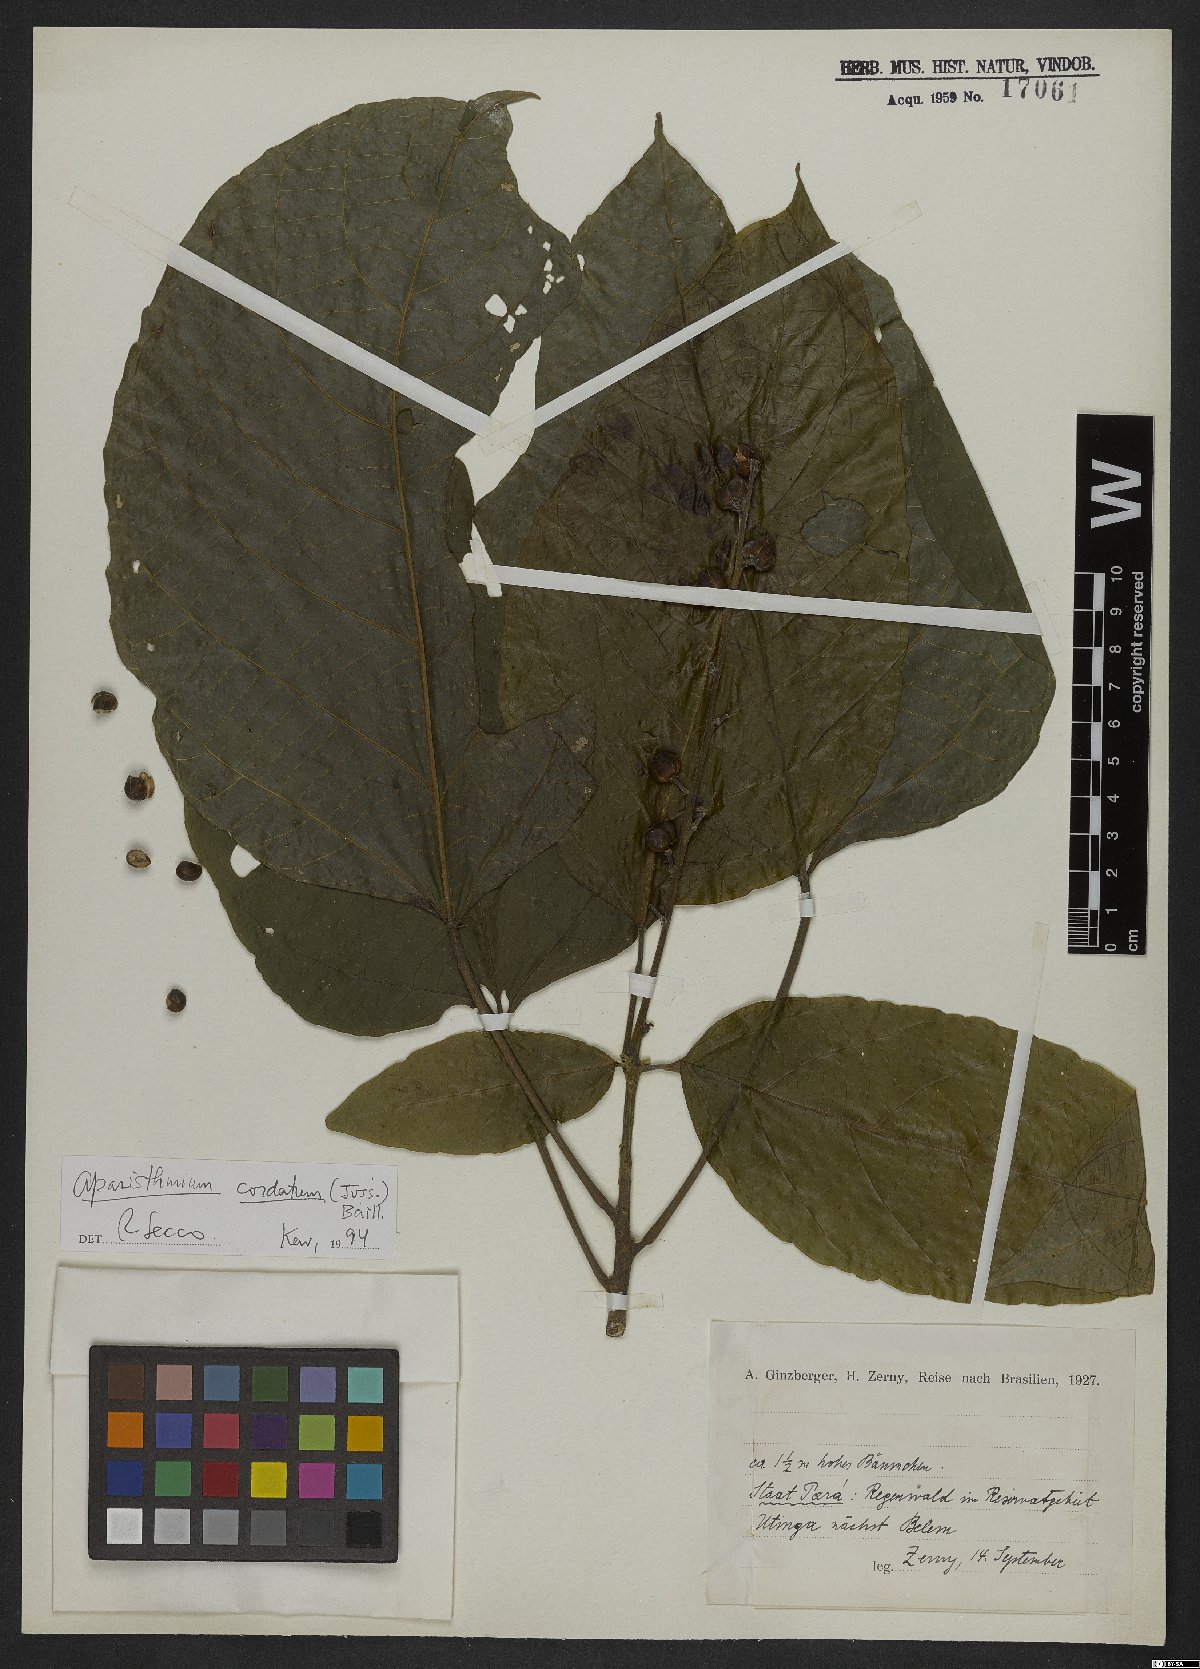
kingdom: Plantae
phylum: Tracheophyta
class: Magnoliopsida
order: Malpighiales
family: Euphorbiaceae
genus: Aparisthmium
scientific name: Aparisthmium cordatum
